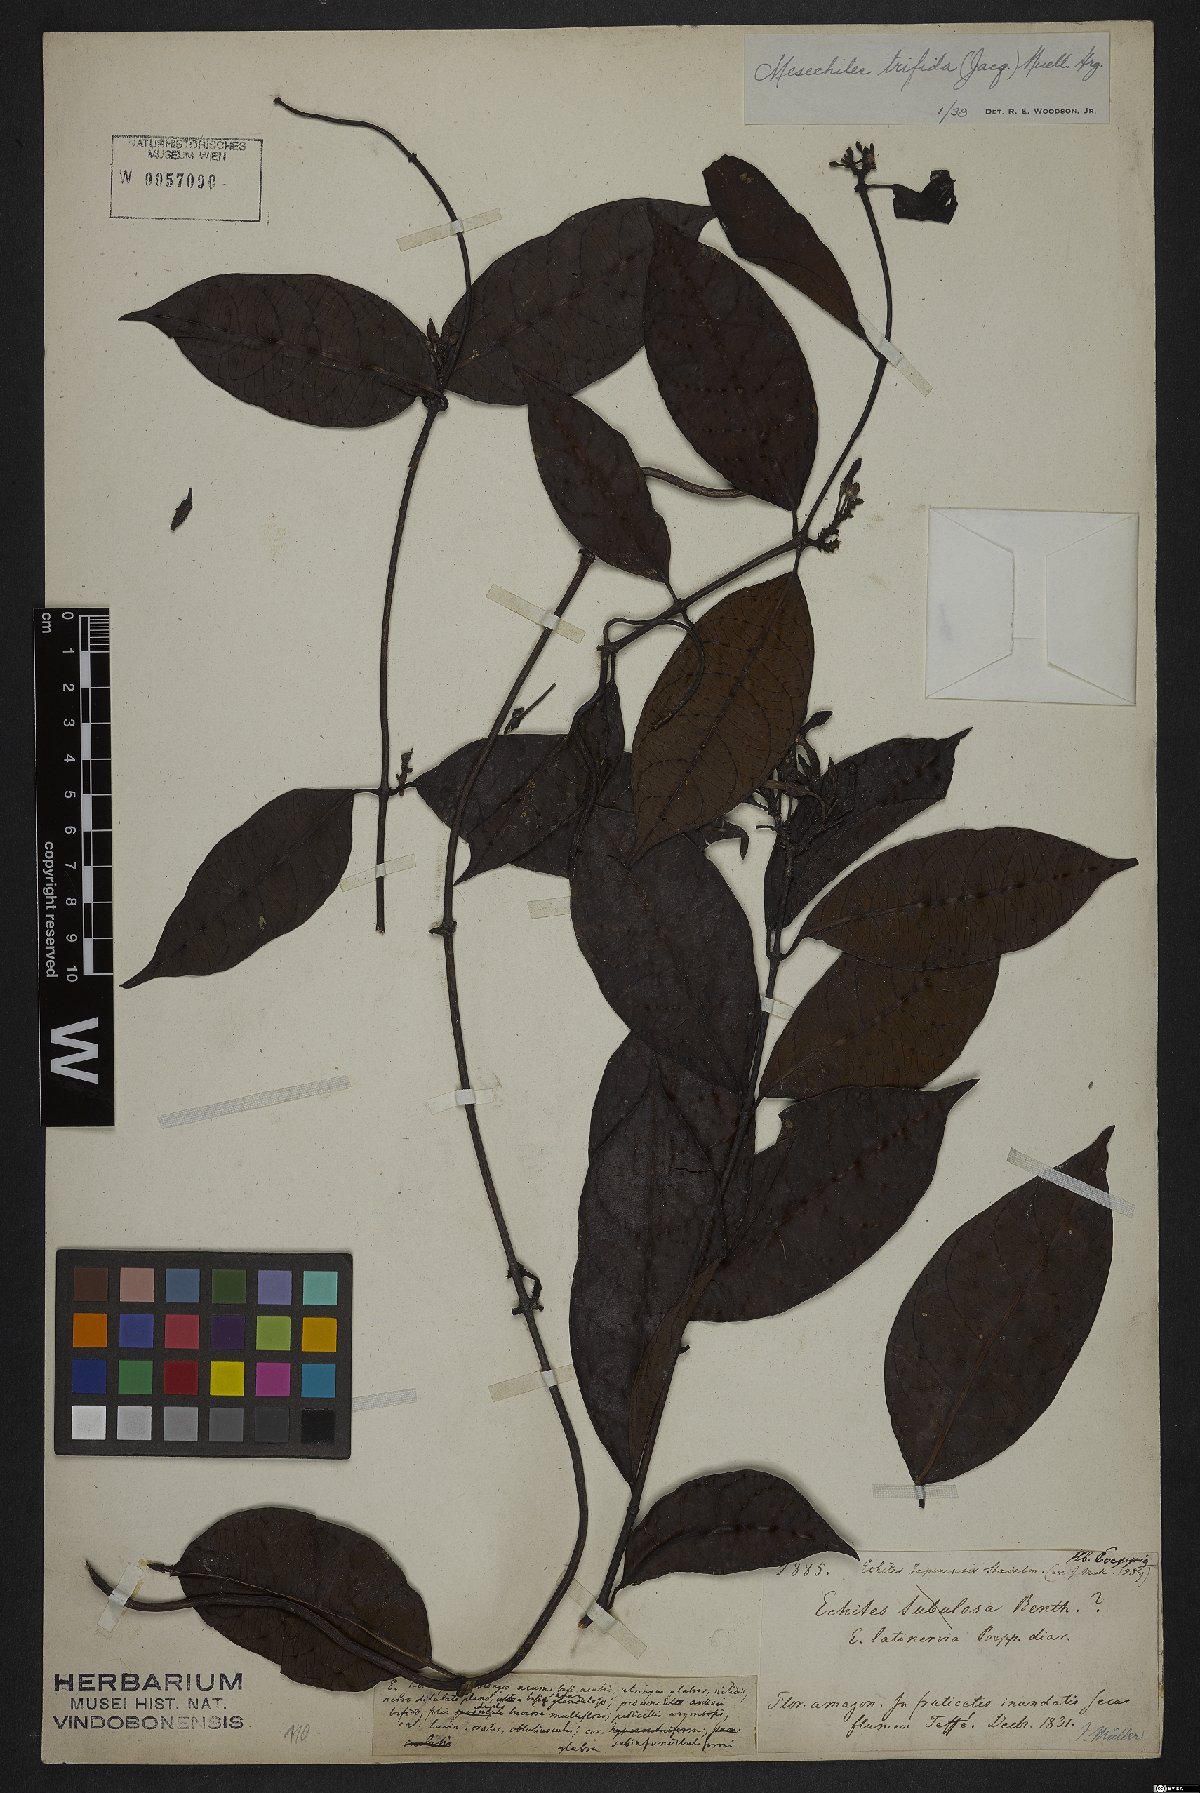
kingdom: Plantae
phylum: Tracheophyta
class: Magnoliopsida
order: Gentianales
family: Apocynaceae
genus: Mesechites
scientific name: Mesechites trifidus
